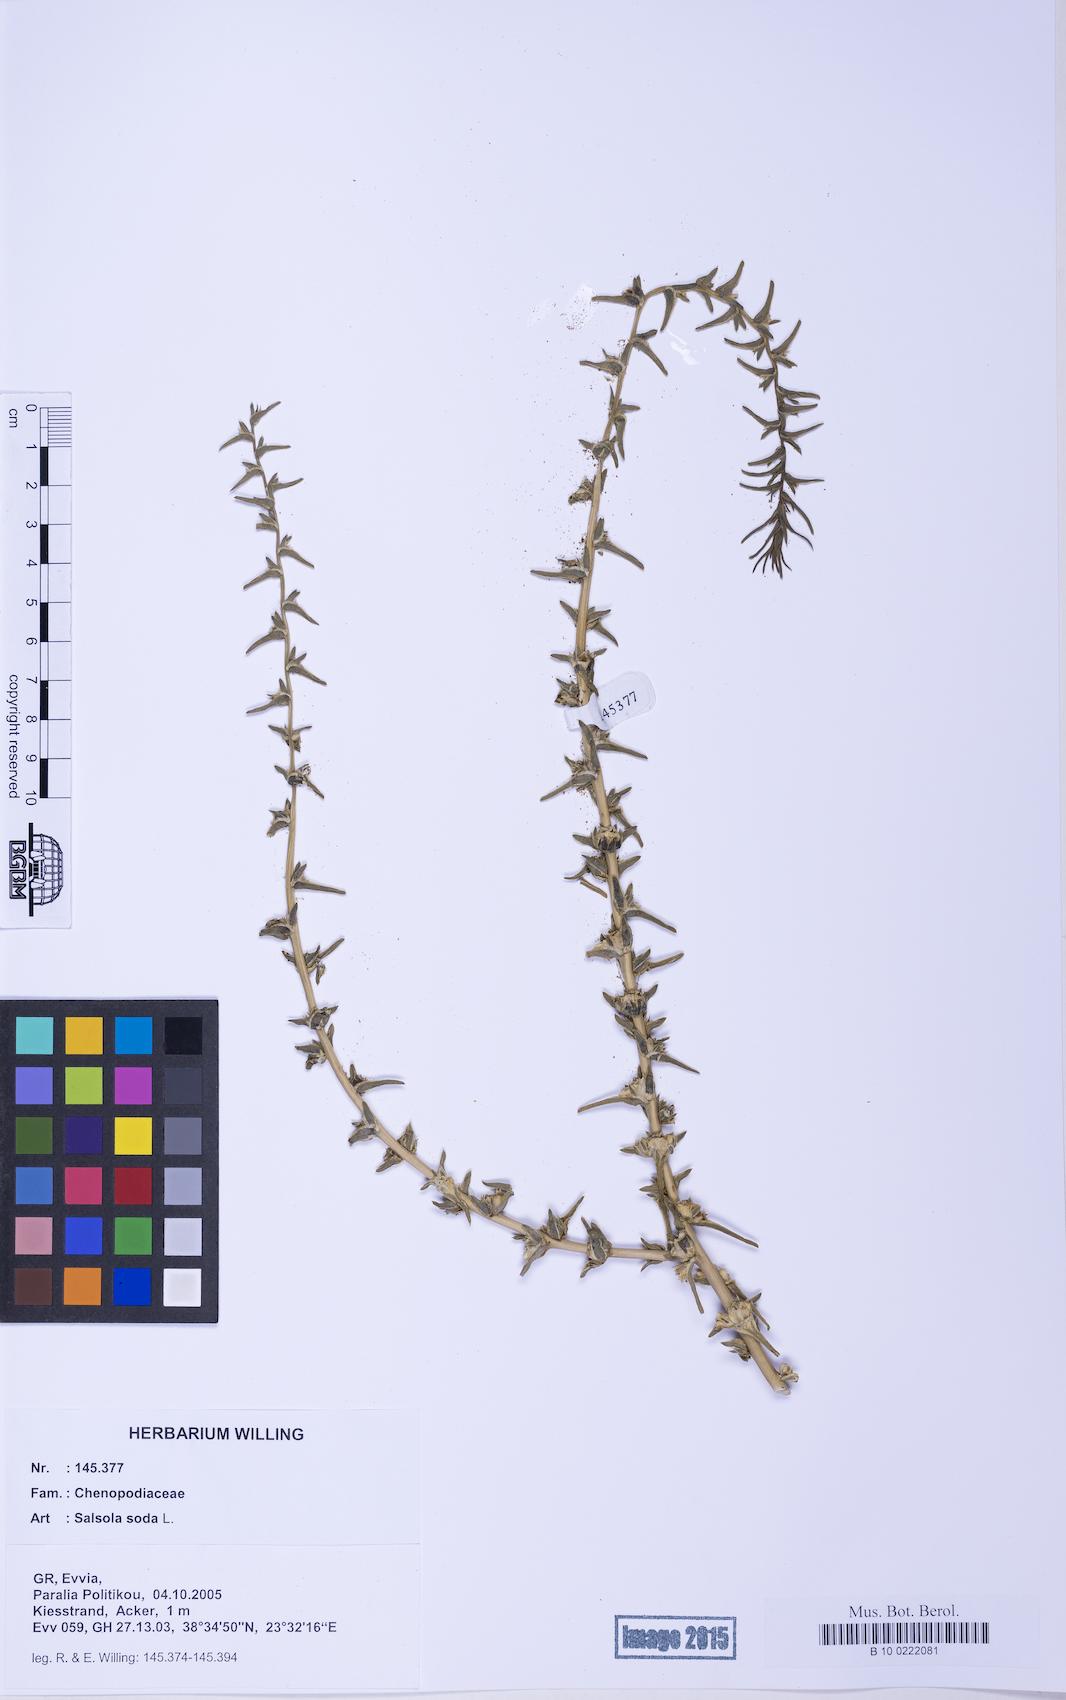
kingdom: Plantae
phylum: Tracheophyta
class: Magnoliopsida
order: Caryophyllales
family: Amaranthaceae
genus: Soda
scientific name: Soda inermis
